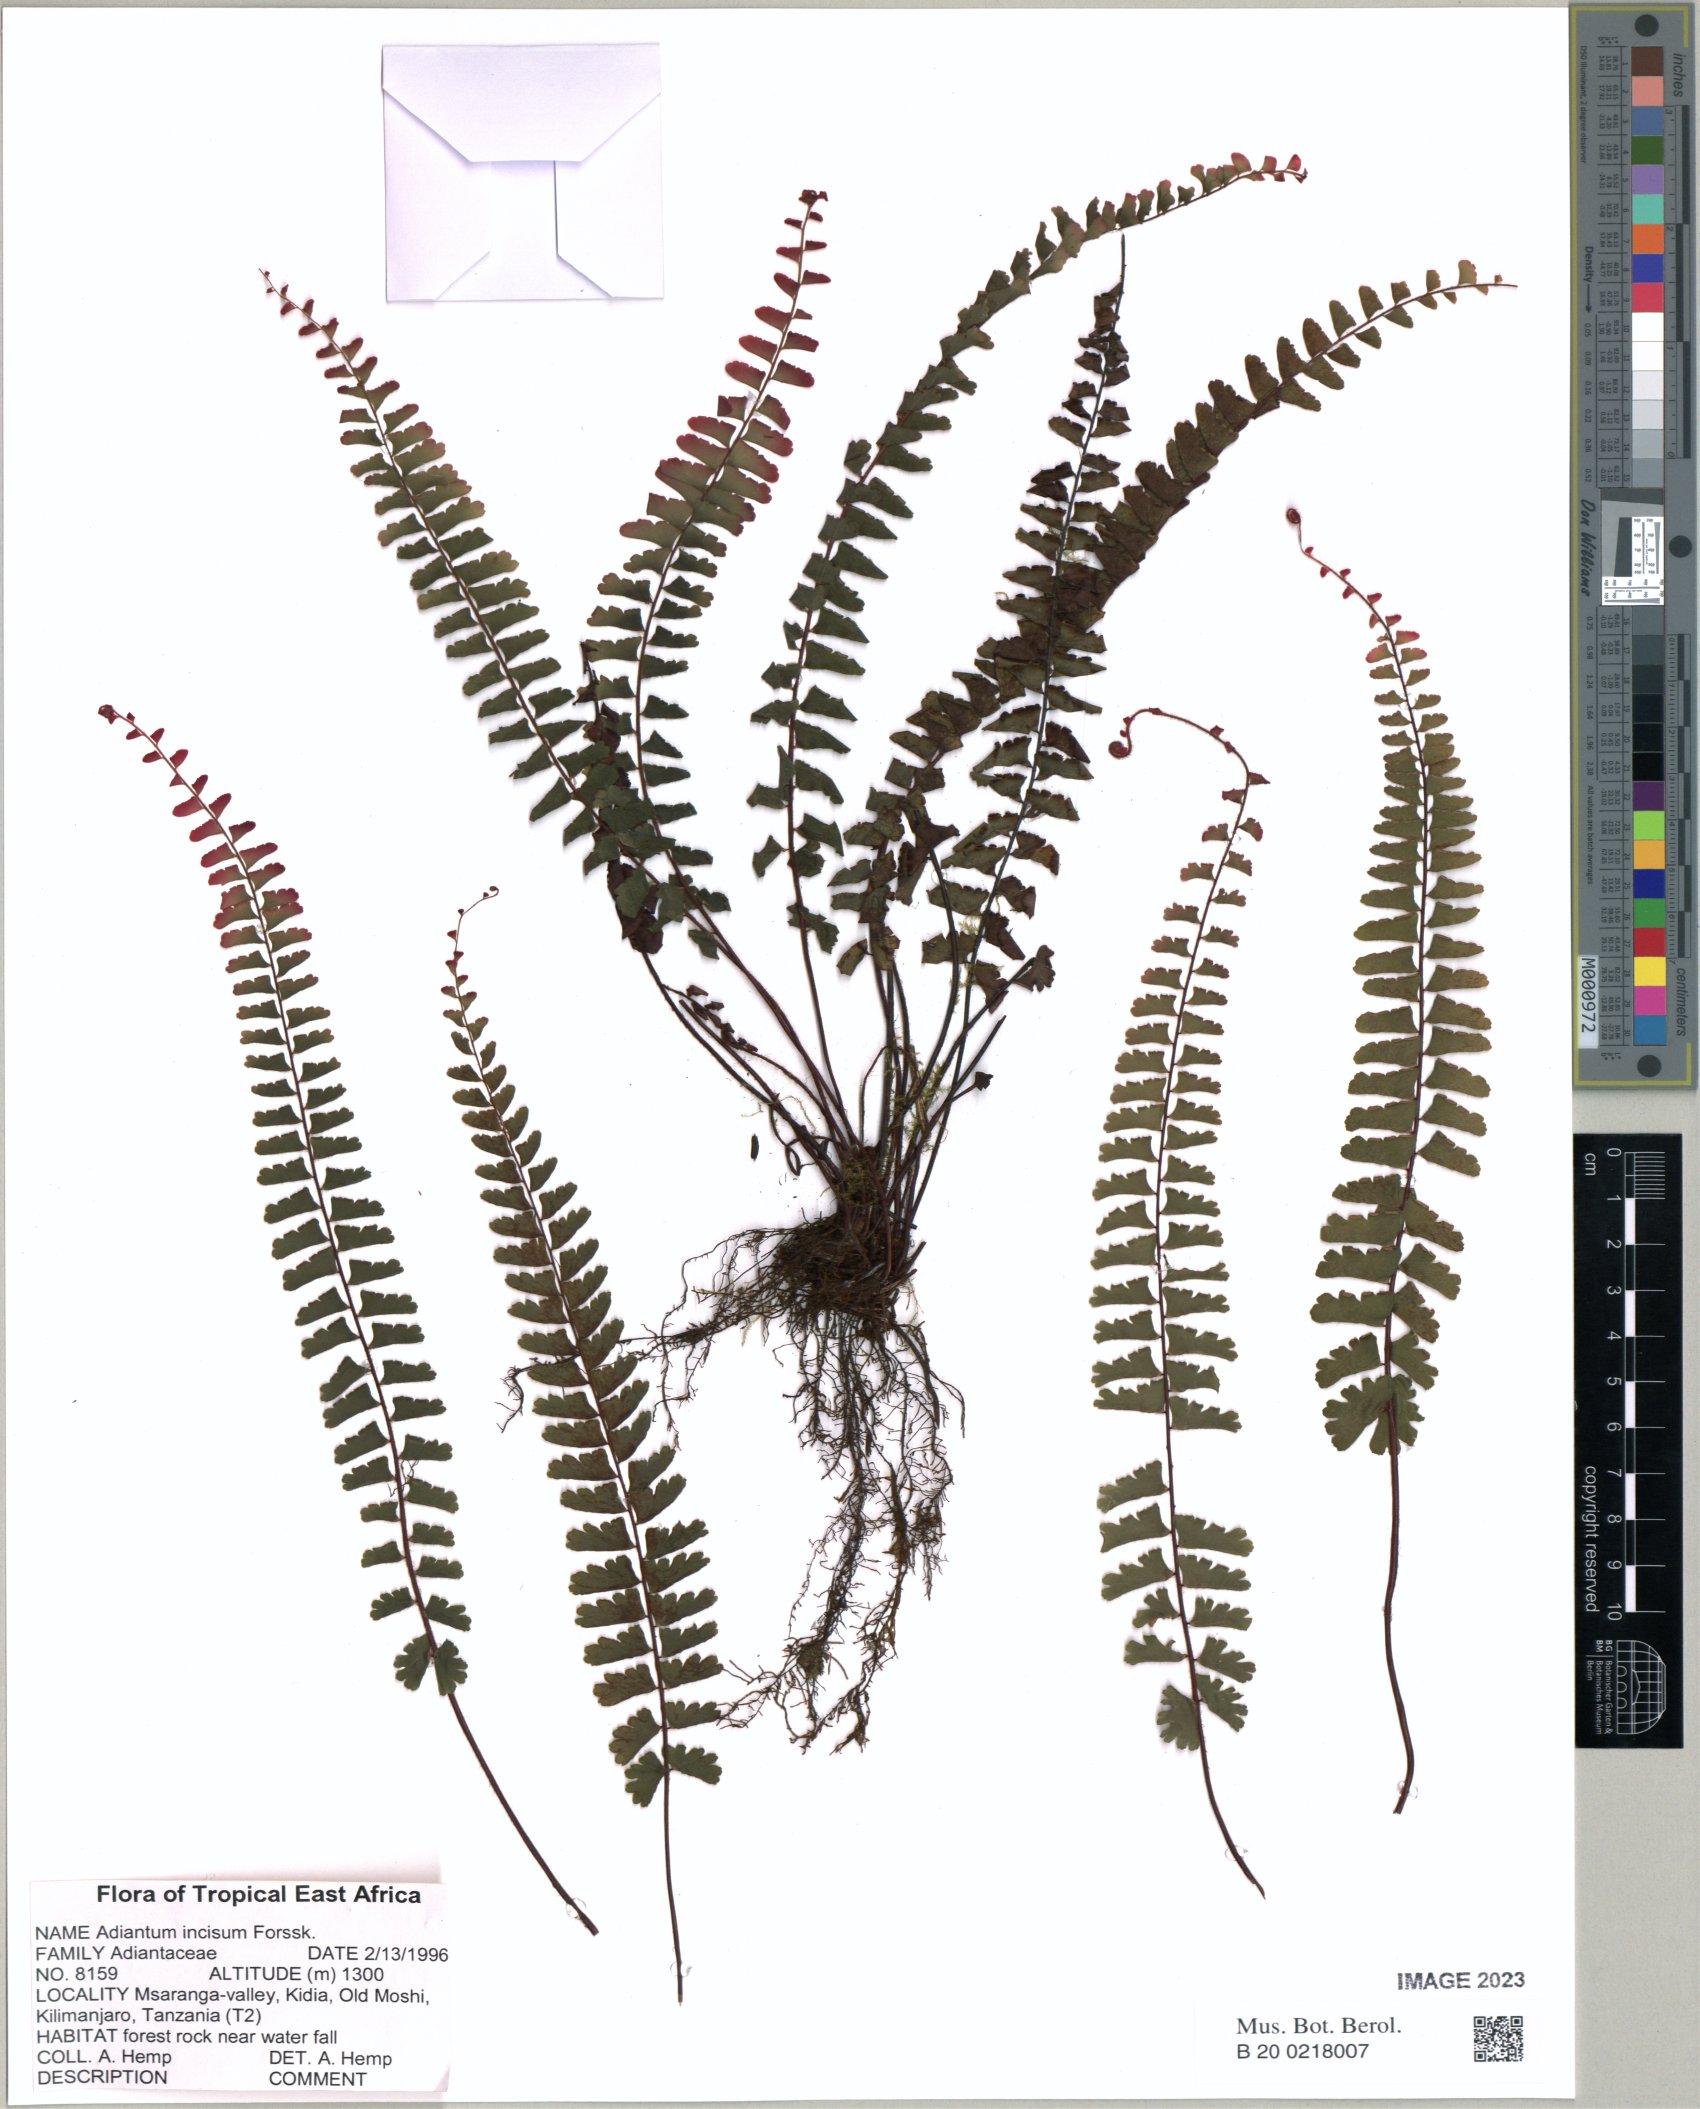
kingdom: Plantae
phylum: Tracheophyta
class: Polypodiopsida
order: Polypodiales
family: Pteridaceae
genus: Adiantum
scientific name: Adiantum incisum
